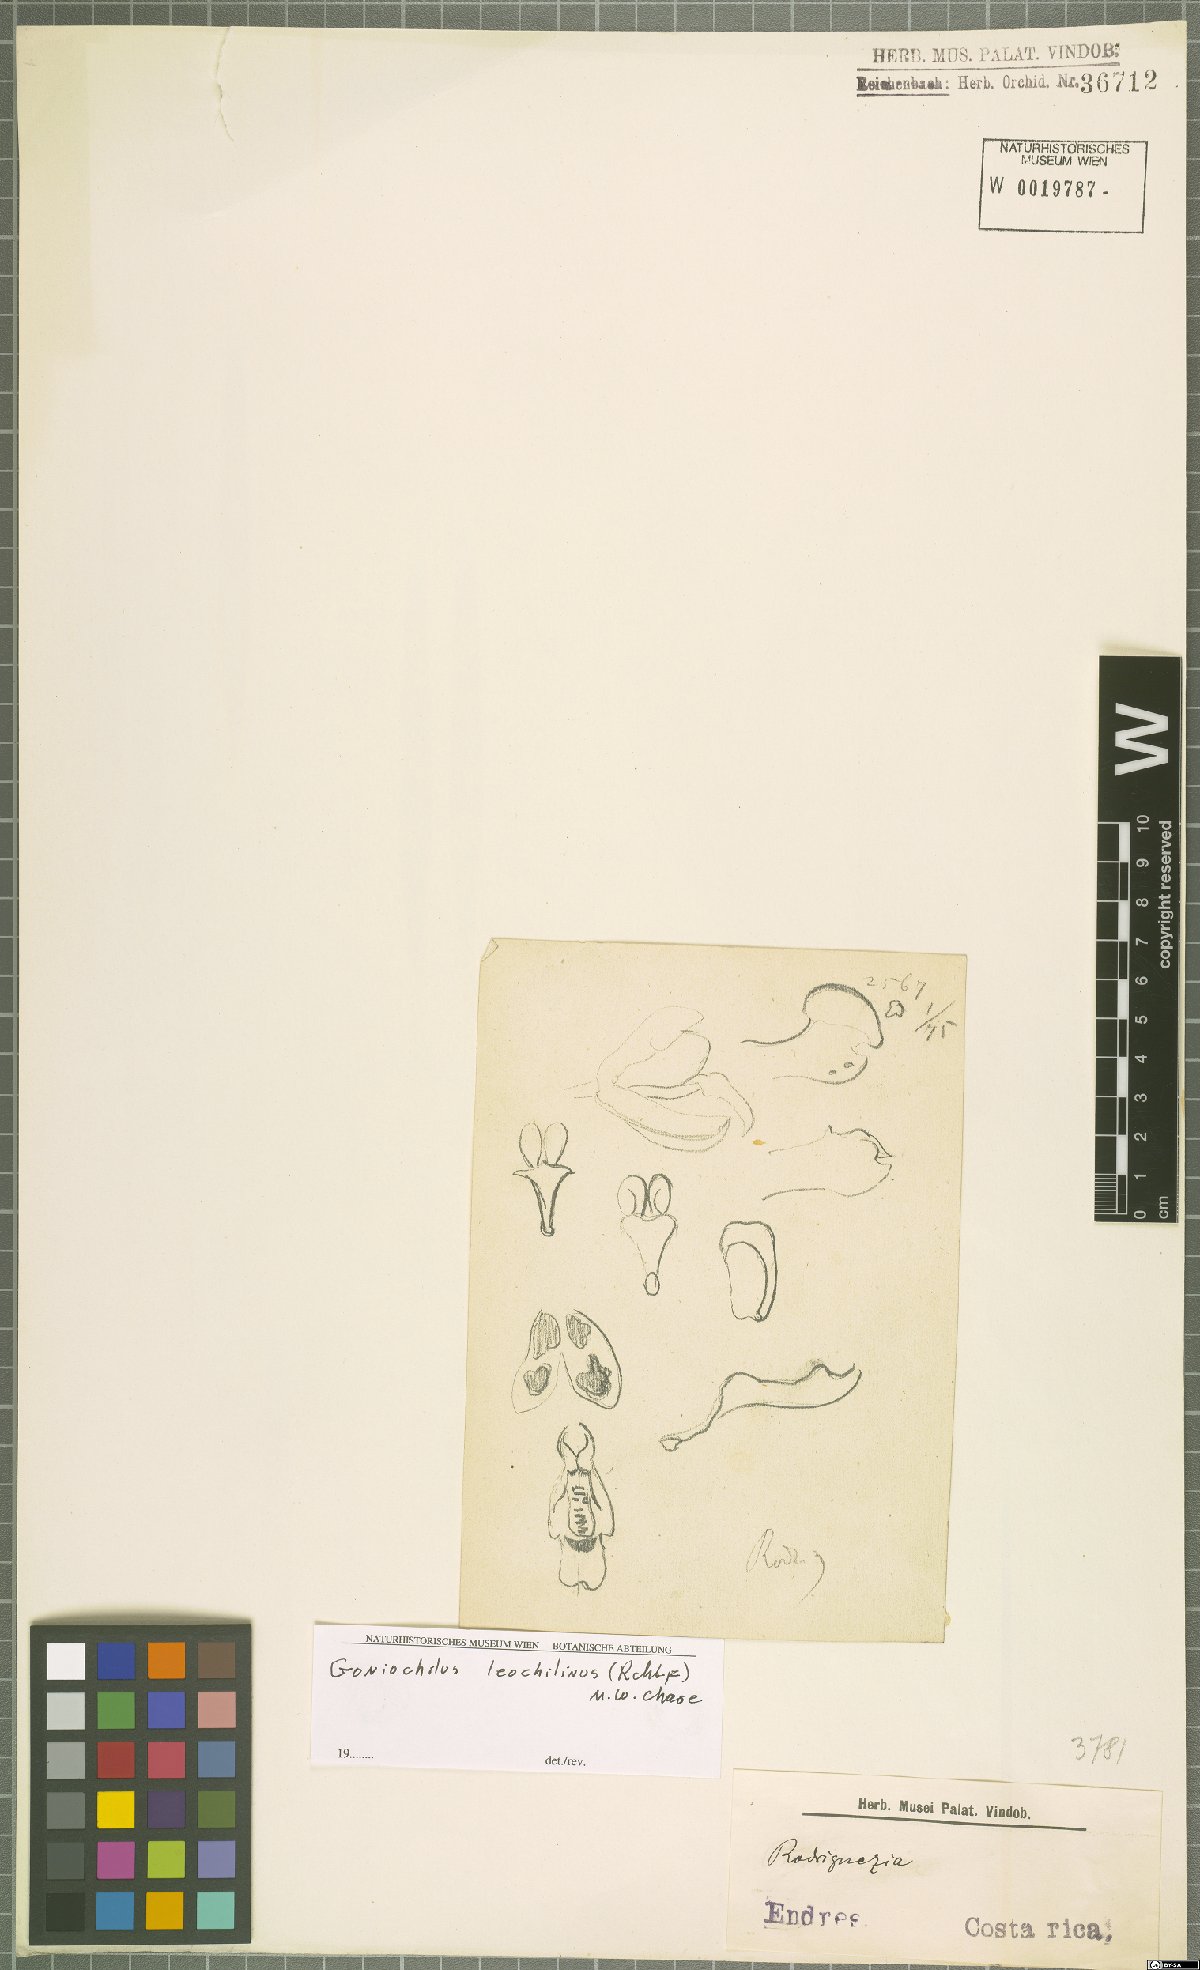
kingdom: Plantae
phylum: Tracheophyta
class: Liliopsida
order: Asparagales
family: Orchidaceae
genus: Leochilus
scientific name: Leochilus leochilinus
